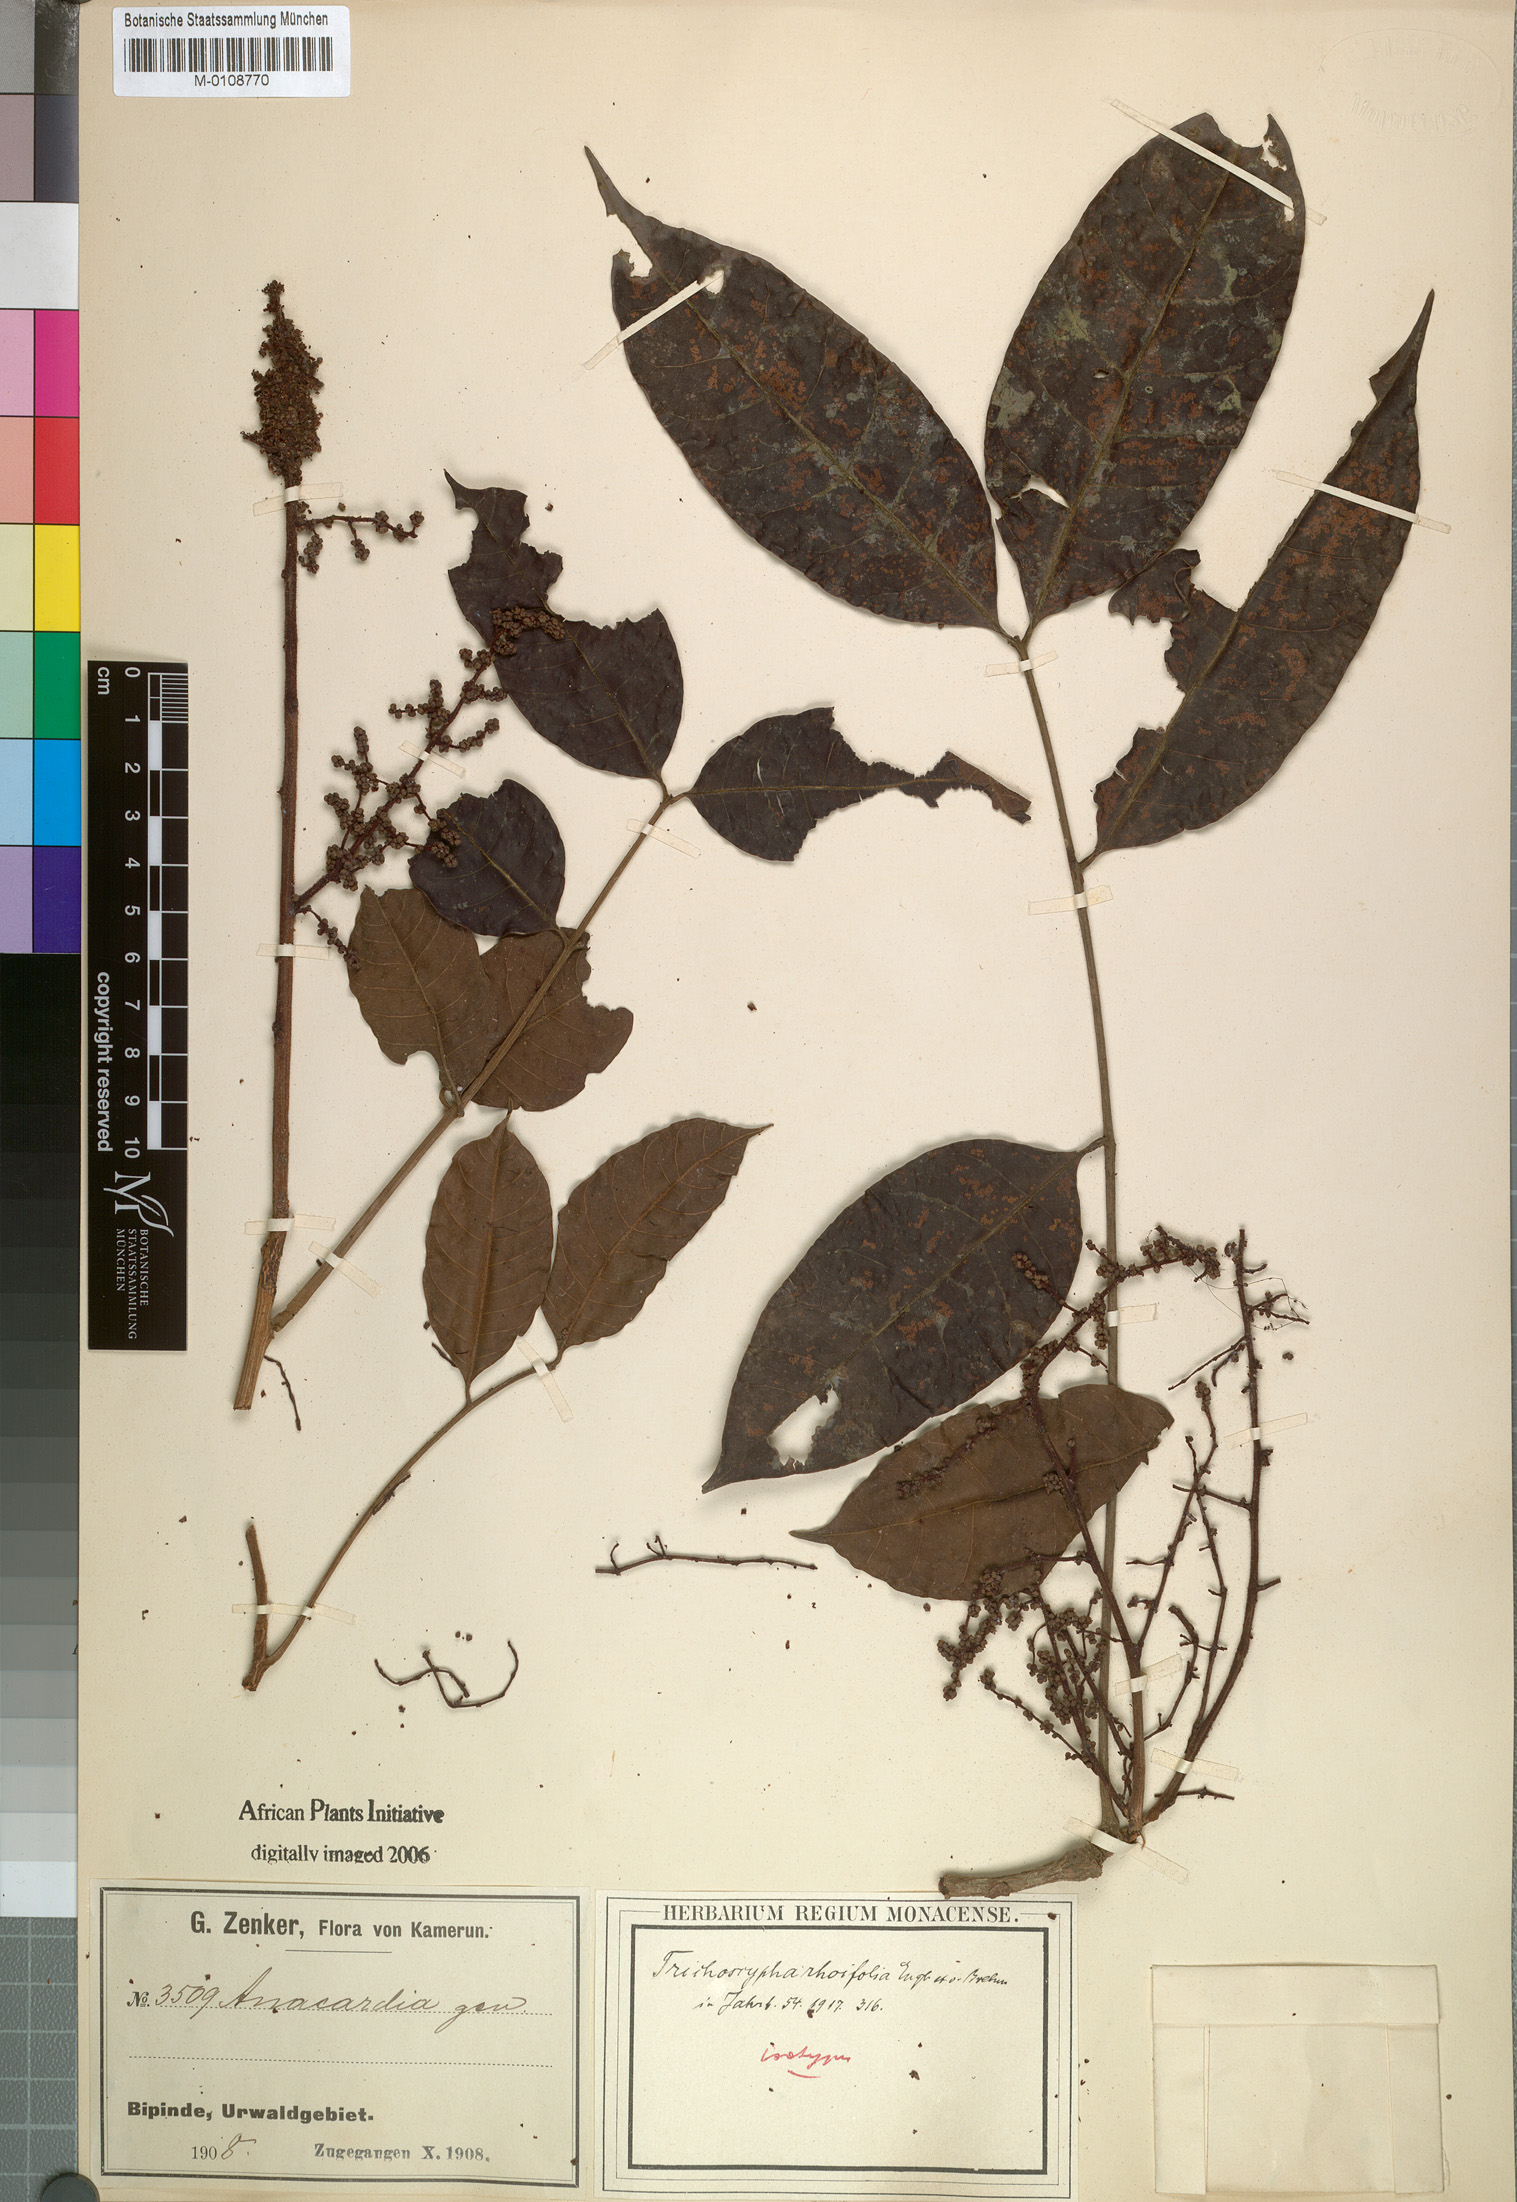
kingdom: Plantae
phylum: Tracheophyta
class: Magnoliopsida
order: Sapindales
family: Anacardiaceae
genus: Trichoscypha
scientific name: Trichoscypha lucens
